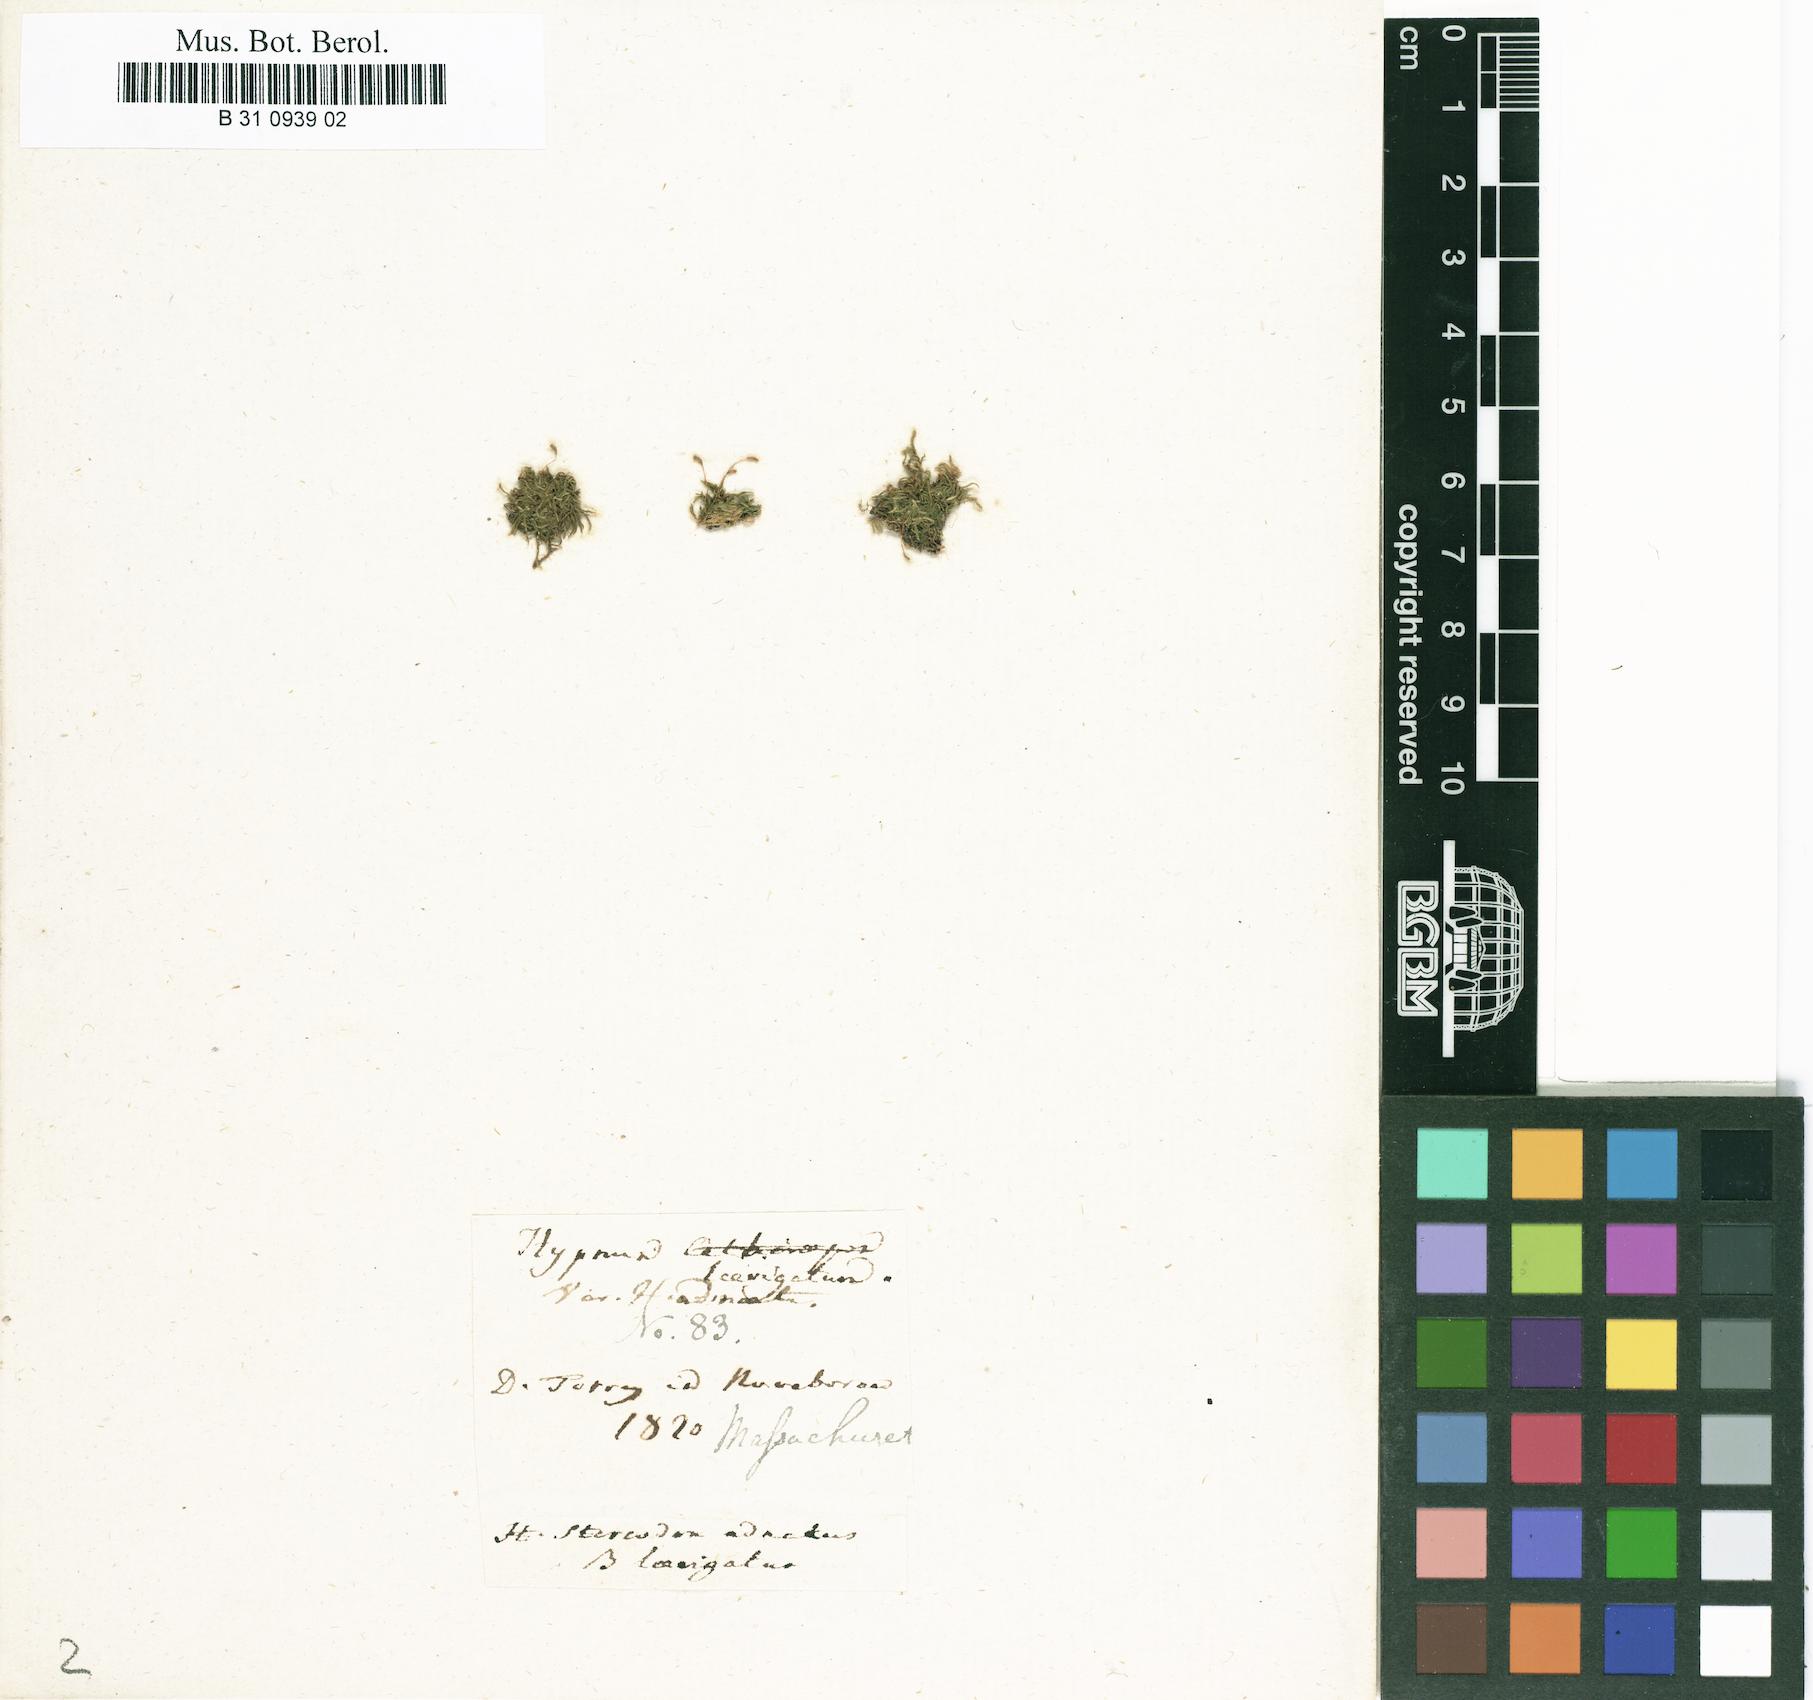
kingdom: Plantae
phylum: Bryophyta
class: Bryopsida
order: Hypnales
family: Stereodontaceae
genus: Stereodon
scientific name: Stereodon adnatus
